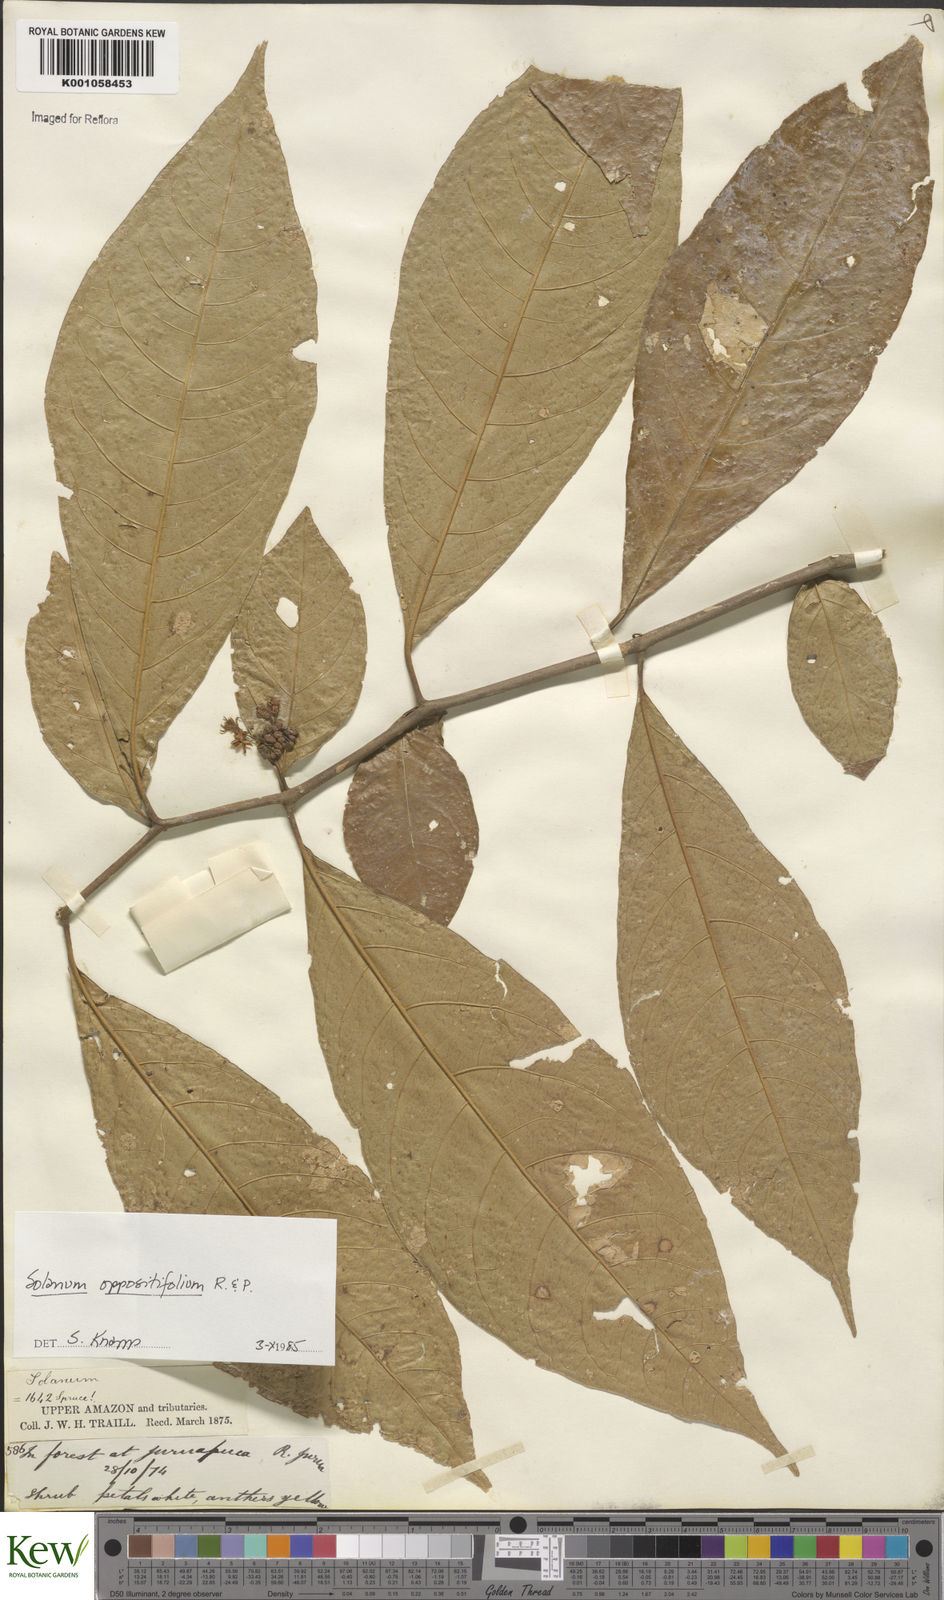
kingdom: Plantae
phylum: Tracheophyta
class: Magnoliopsida
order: Solanales
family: Solanaceae
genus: Solanum
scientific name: Solanum oppositifolium
